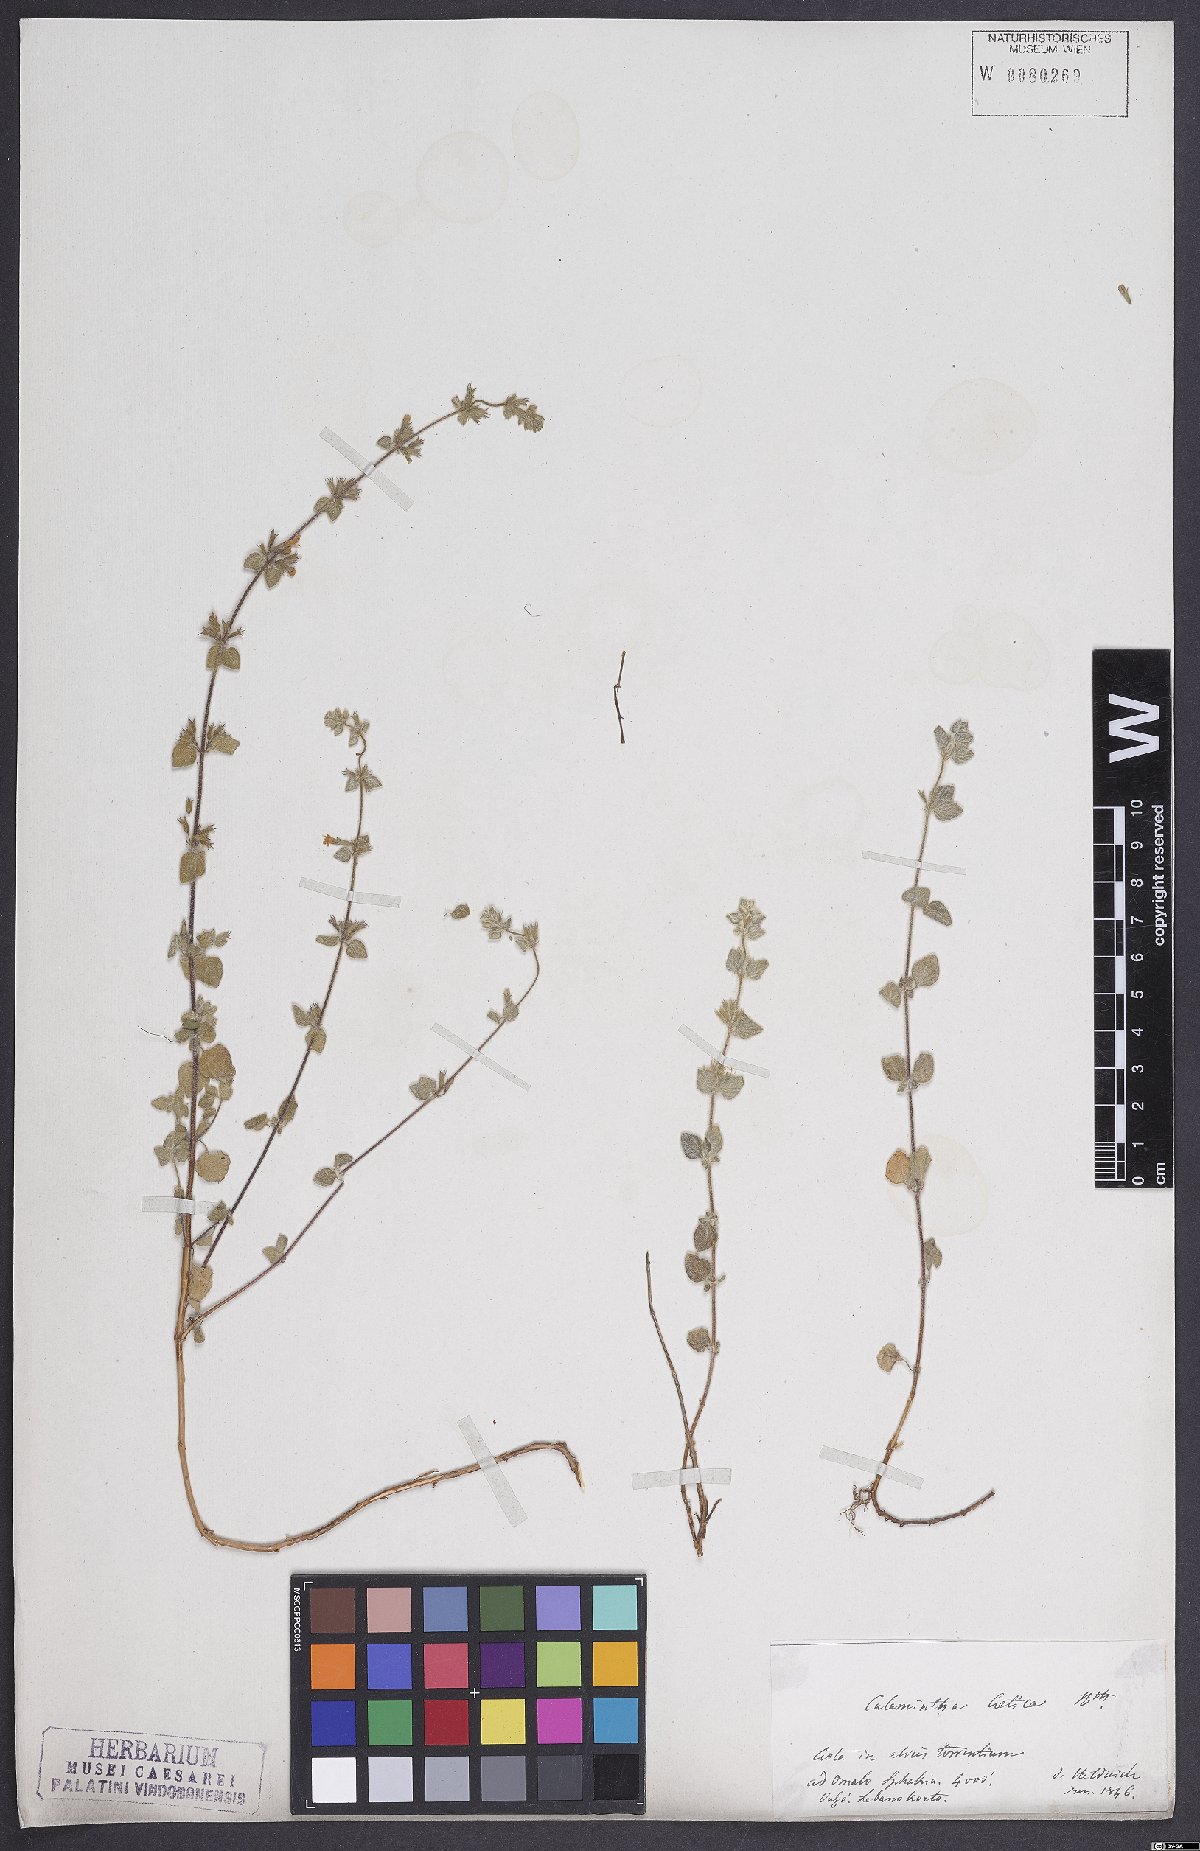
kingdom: Plantae
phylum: Tracheophyta
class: Magnoliopsida
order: Lamiales
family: Lamiaceae
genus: Clinopodium
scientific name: Clinopodium creticum
